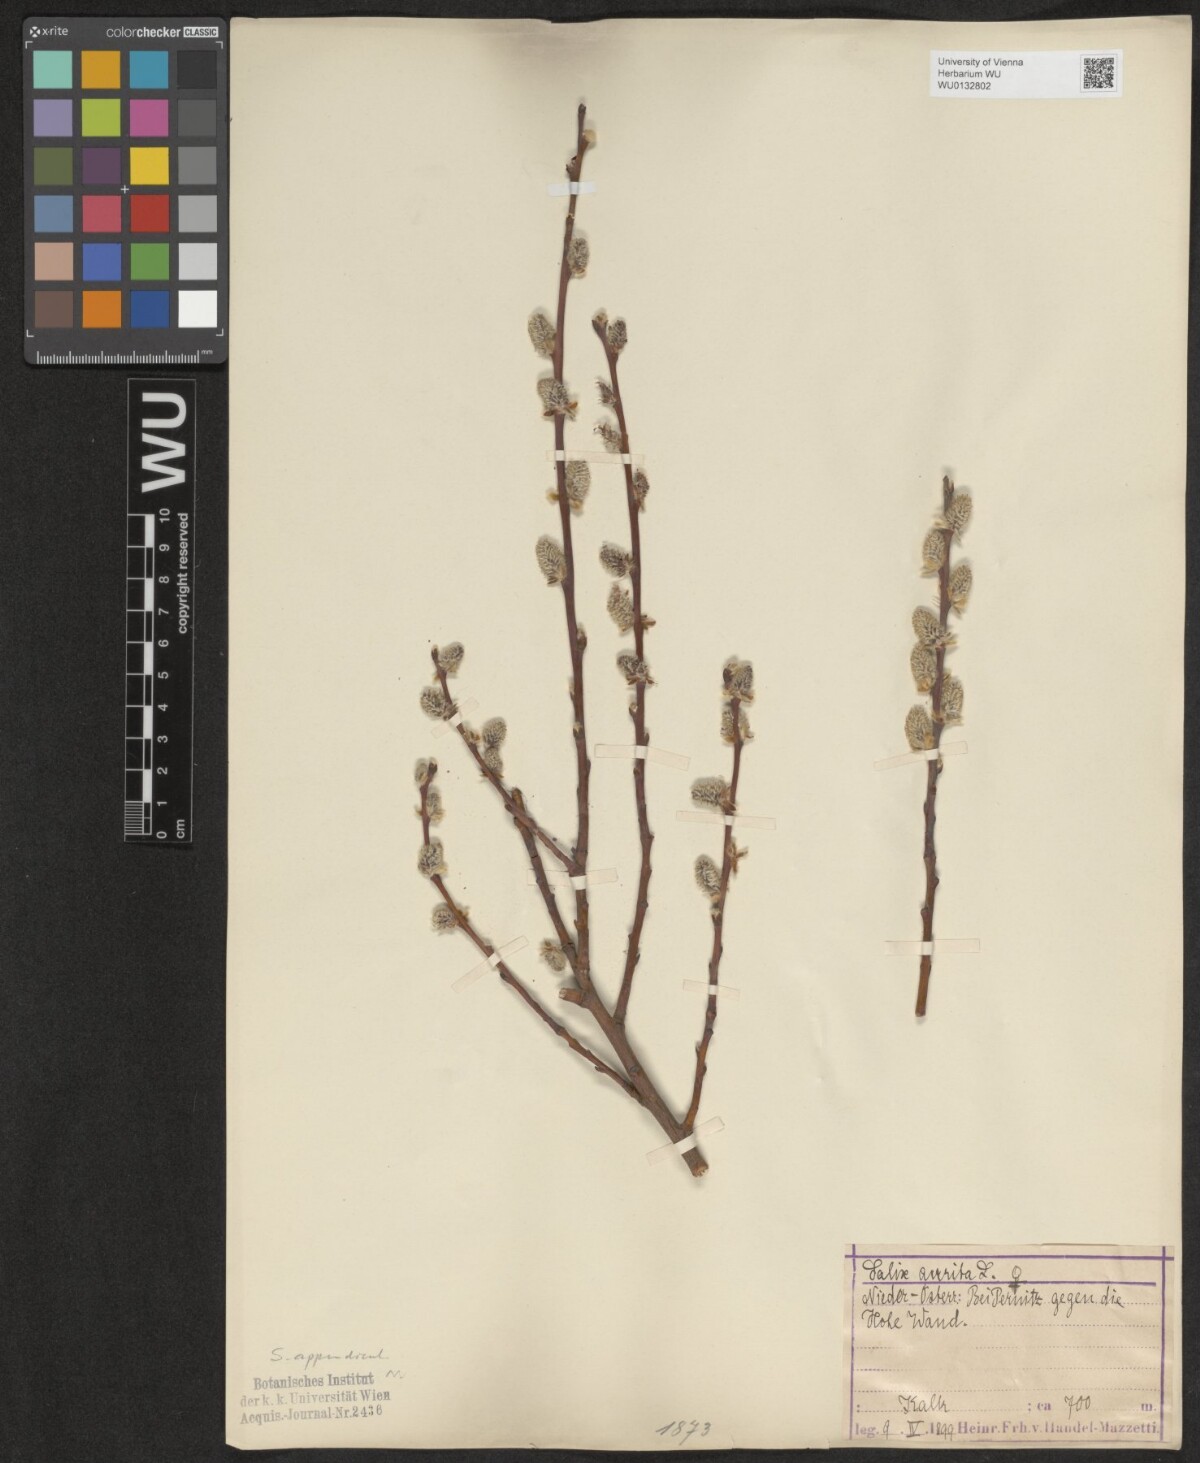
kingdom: Plantae
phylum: Tracheophyta
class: Magnoliopsida
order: Malpighiales
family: Salicaceae
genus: Salix
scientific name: Salix appendiculata
